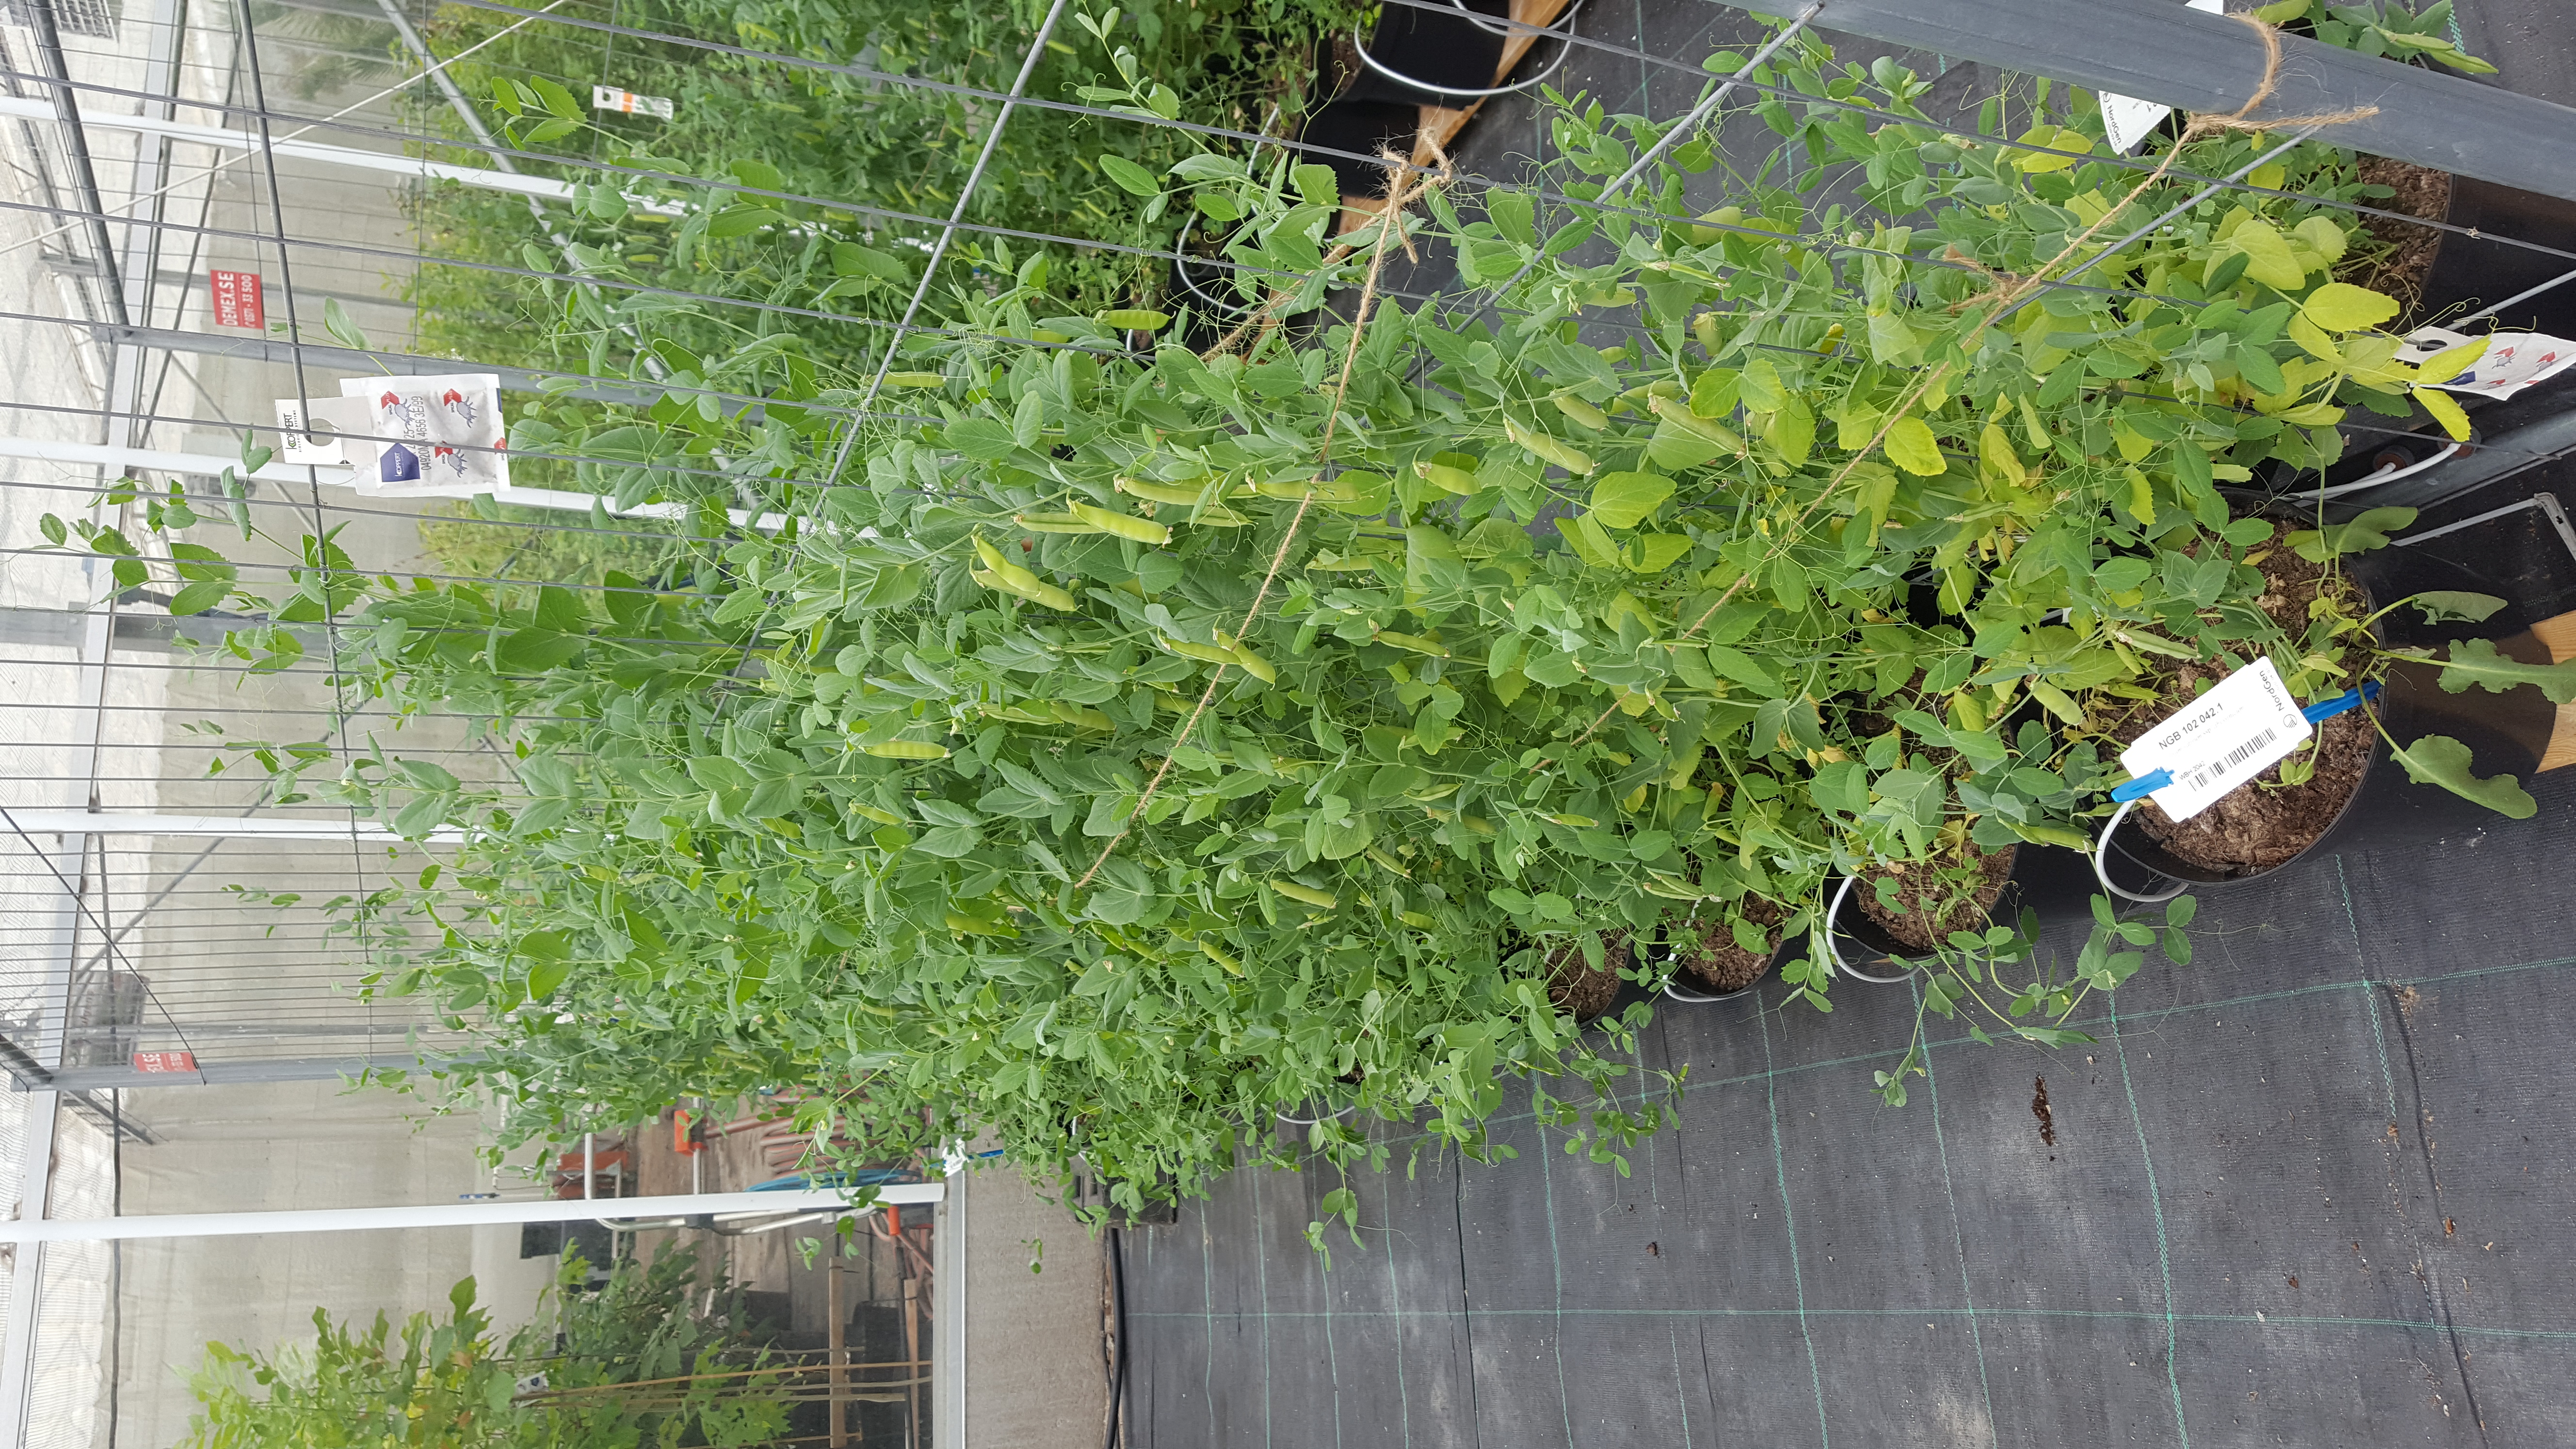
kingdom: Plantae
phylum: Tracheophyta
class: Magnoliopsida
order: Fabales
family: Fabaceae
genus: Lathyrus
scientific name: Lathyrus oleraceus
